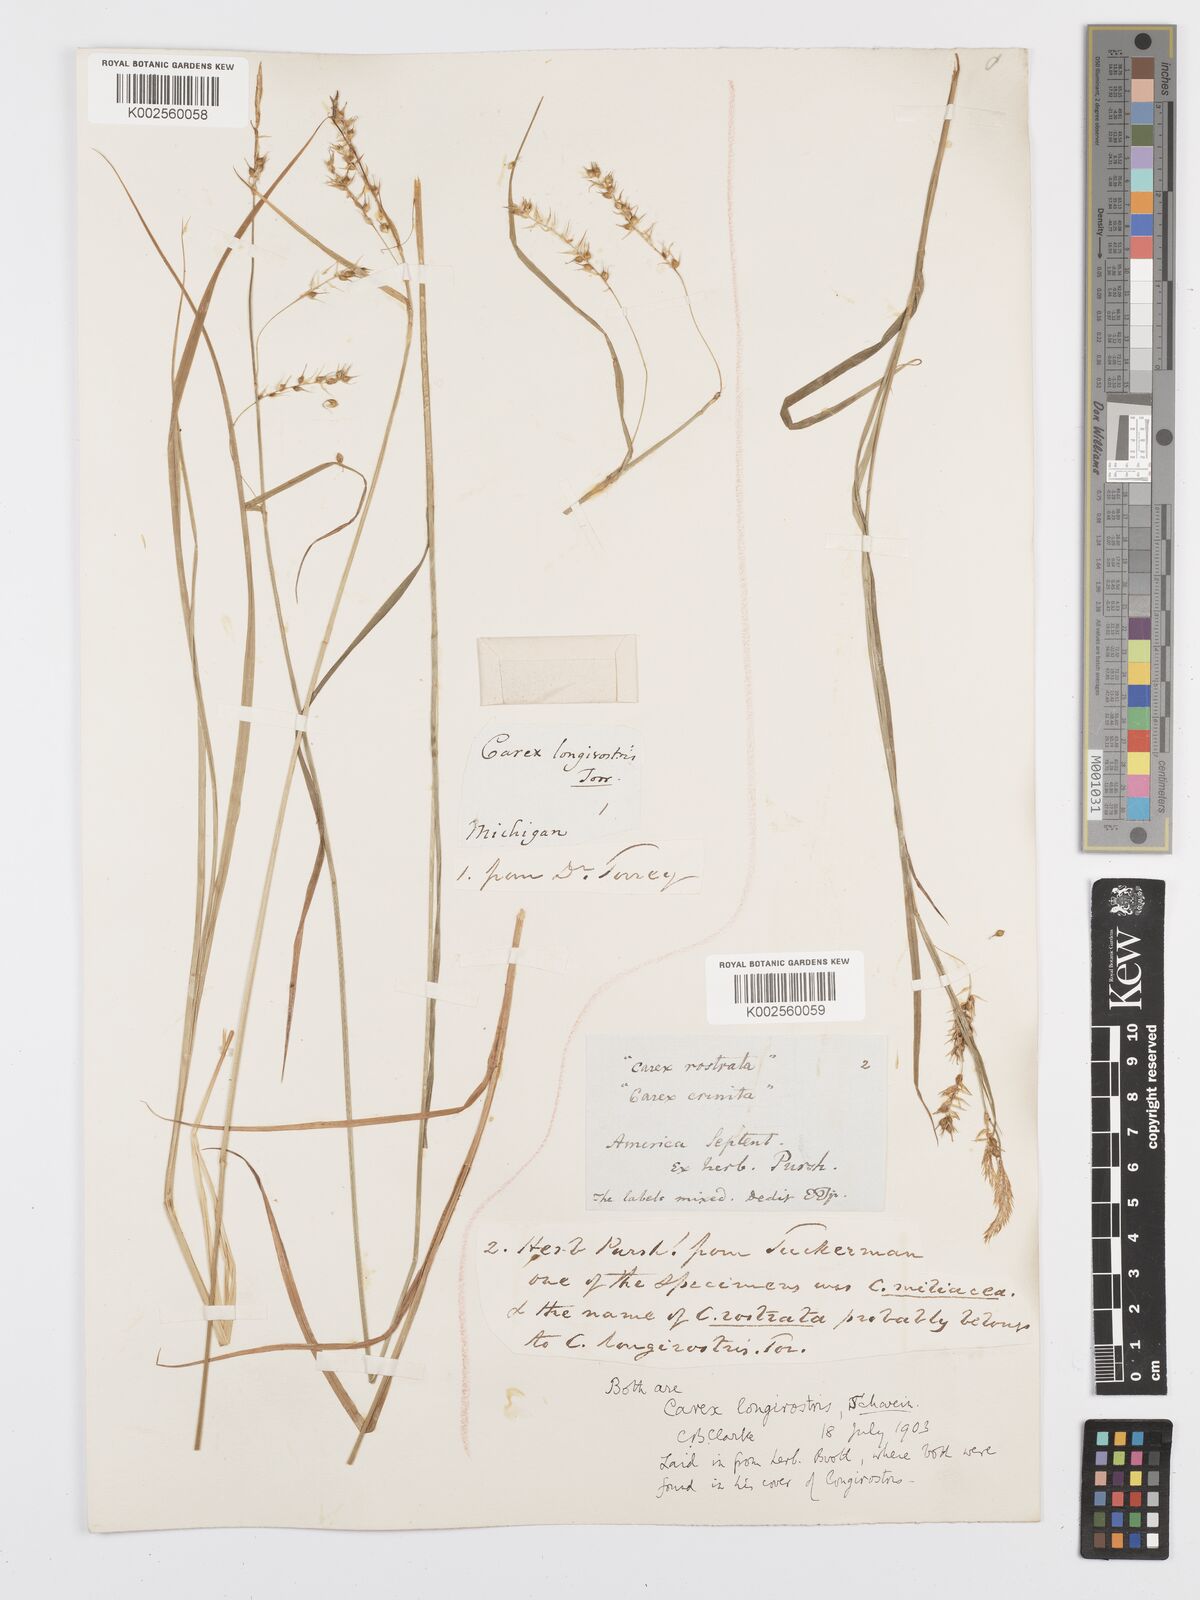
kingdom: Plantae
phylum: Tracheophyta
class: Liliopsida
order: Poales
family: Cyperaceae
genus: Carex
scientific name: Carex sprengelii
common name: Long-beaked sedge
